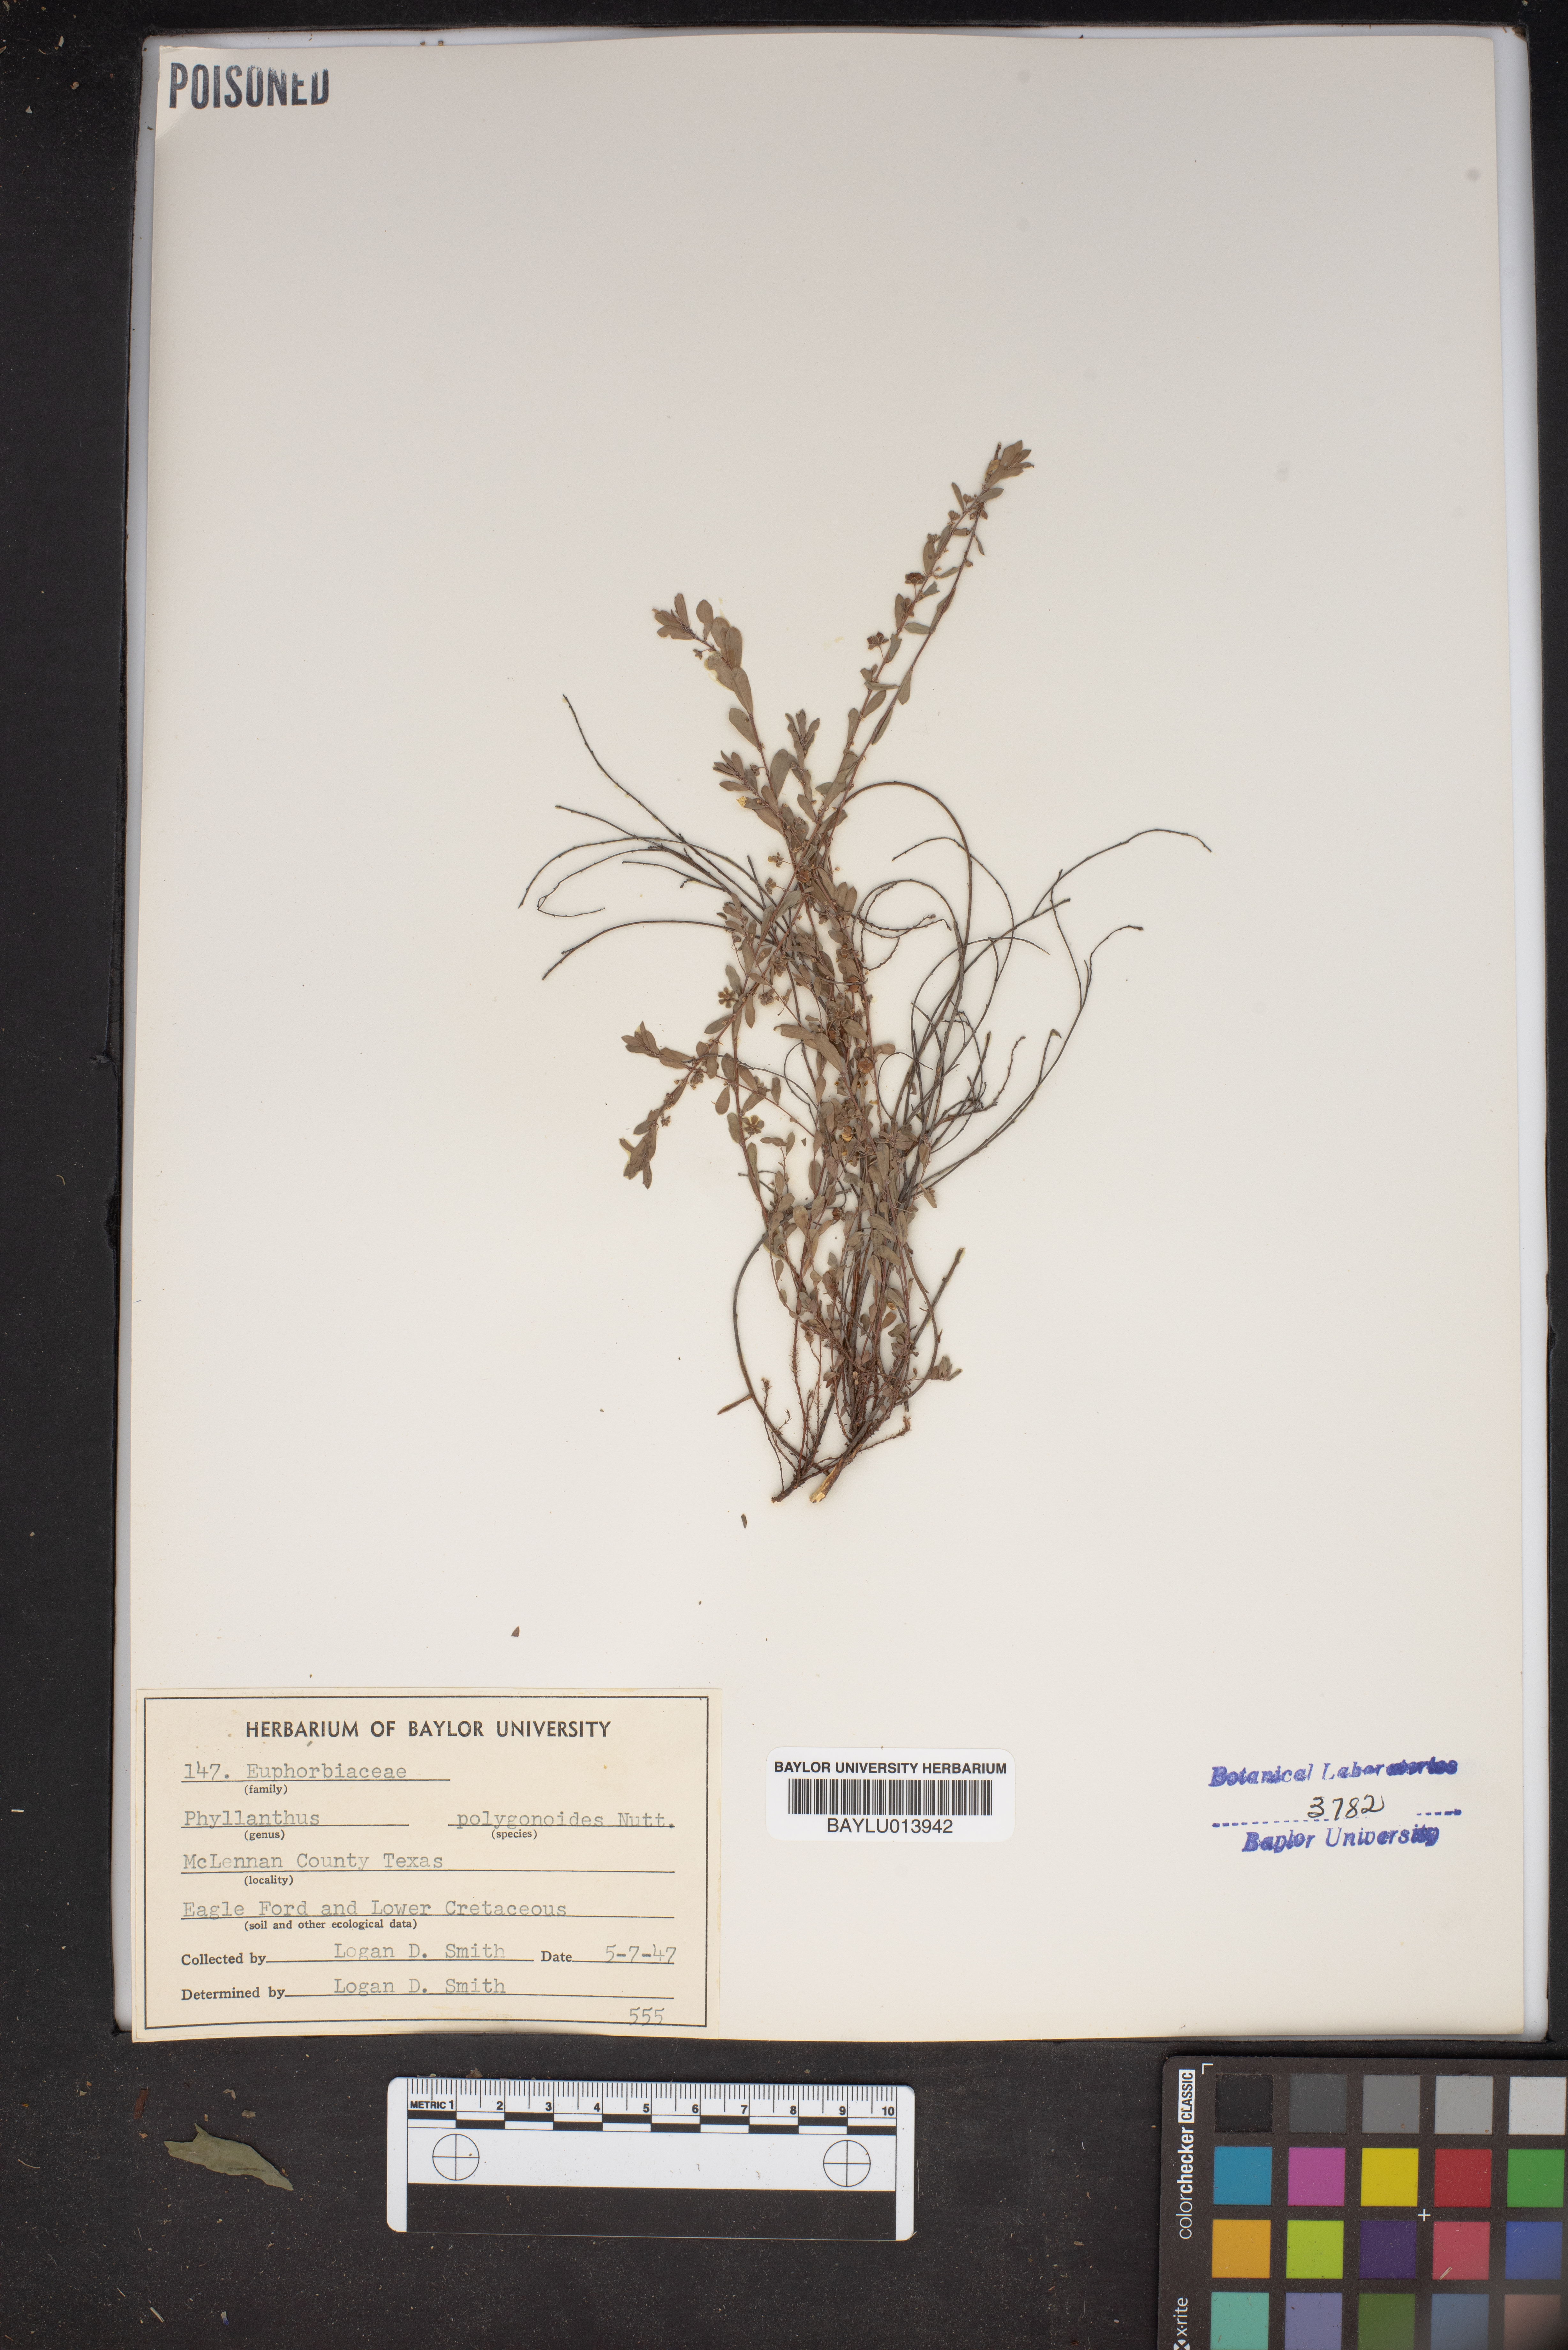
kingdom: Plantae
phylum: Tracheophyta
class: Magnoliopsida
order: Malpighiales
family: Phyllanthaceae
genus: Phyllanthus
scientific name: Phyllanthus polygonoides
